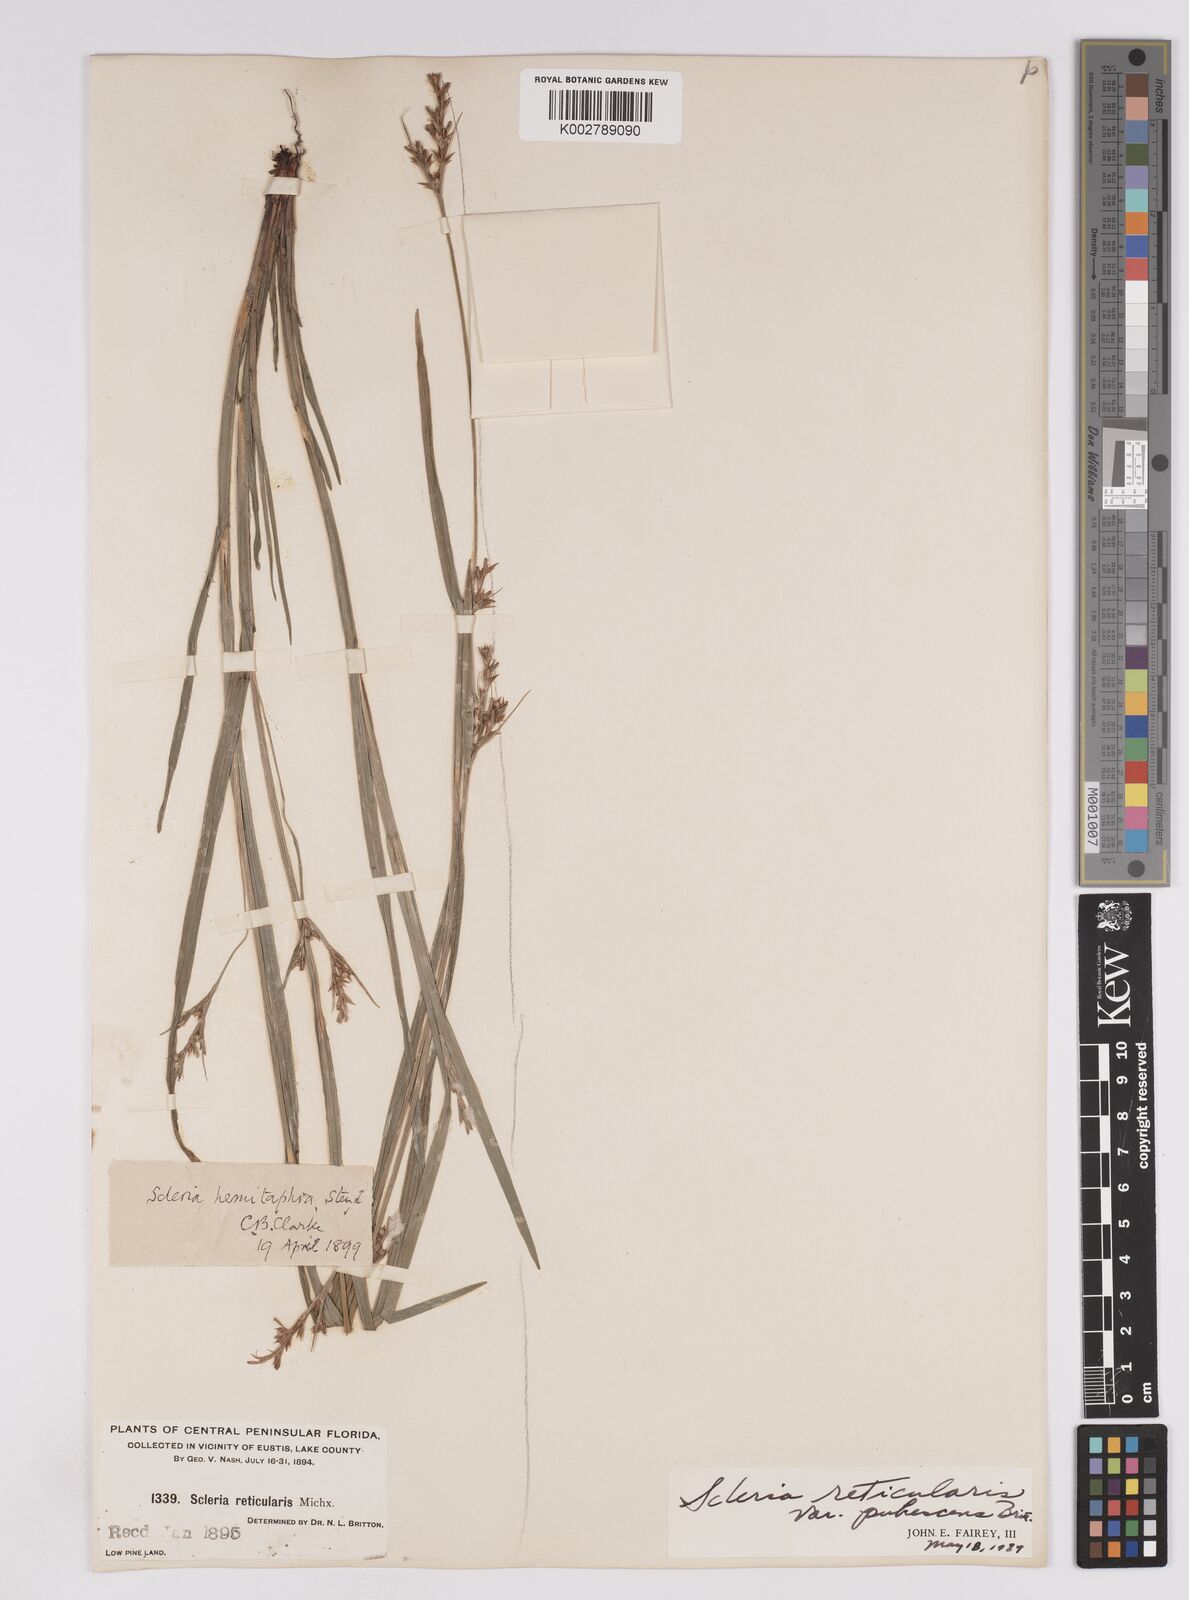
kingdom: Plantae
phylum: Tracheophyta
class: Liliopsida
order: Poales
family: Cyperaceae
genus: Scleria
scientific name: Scleria muehlenbergii
